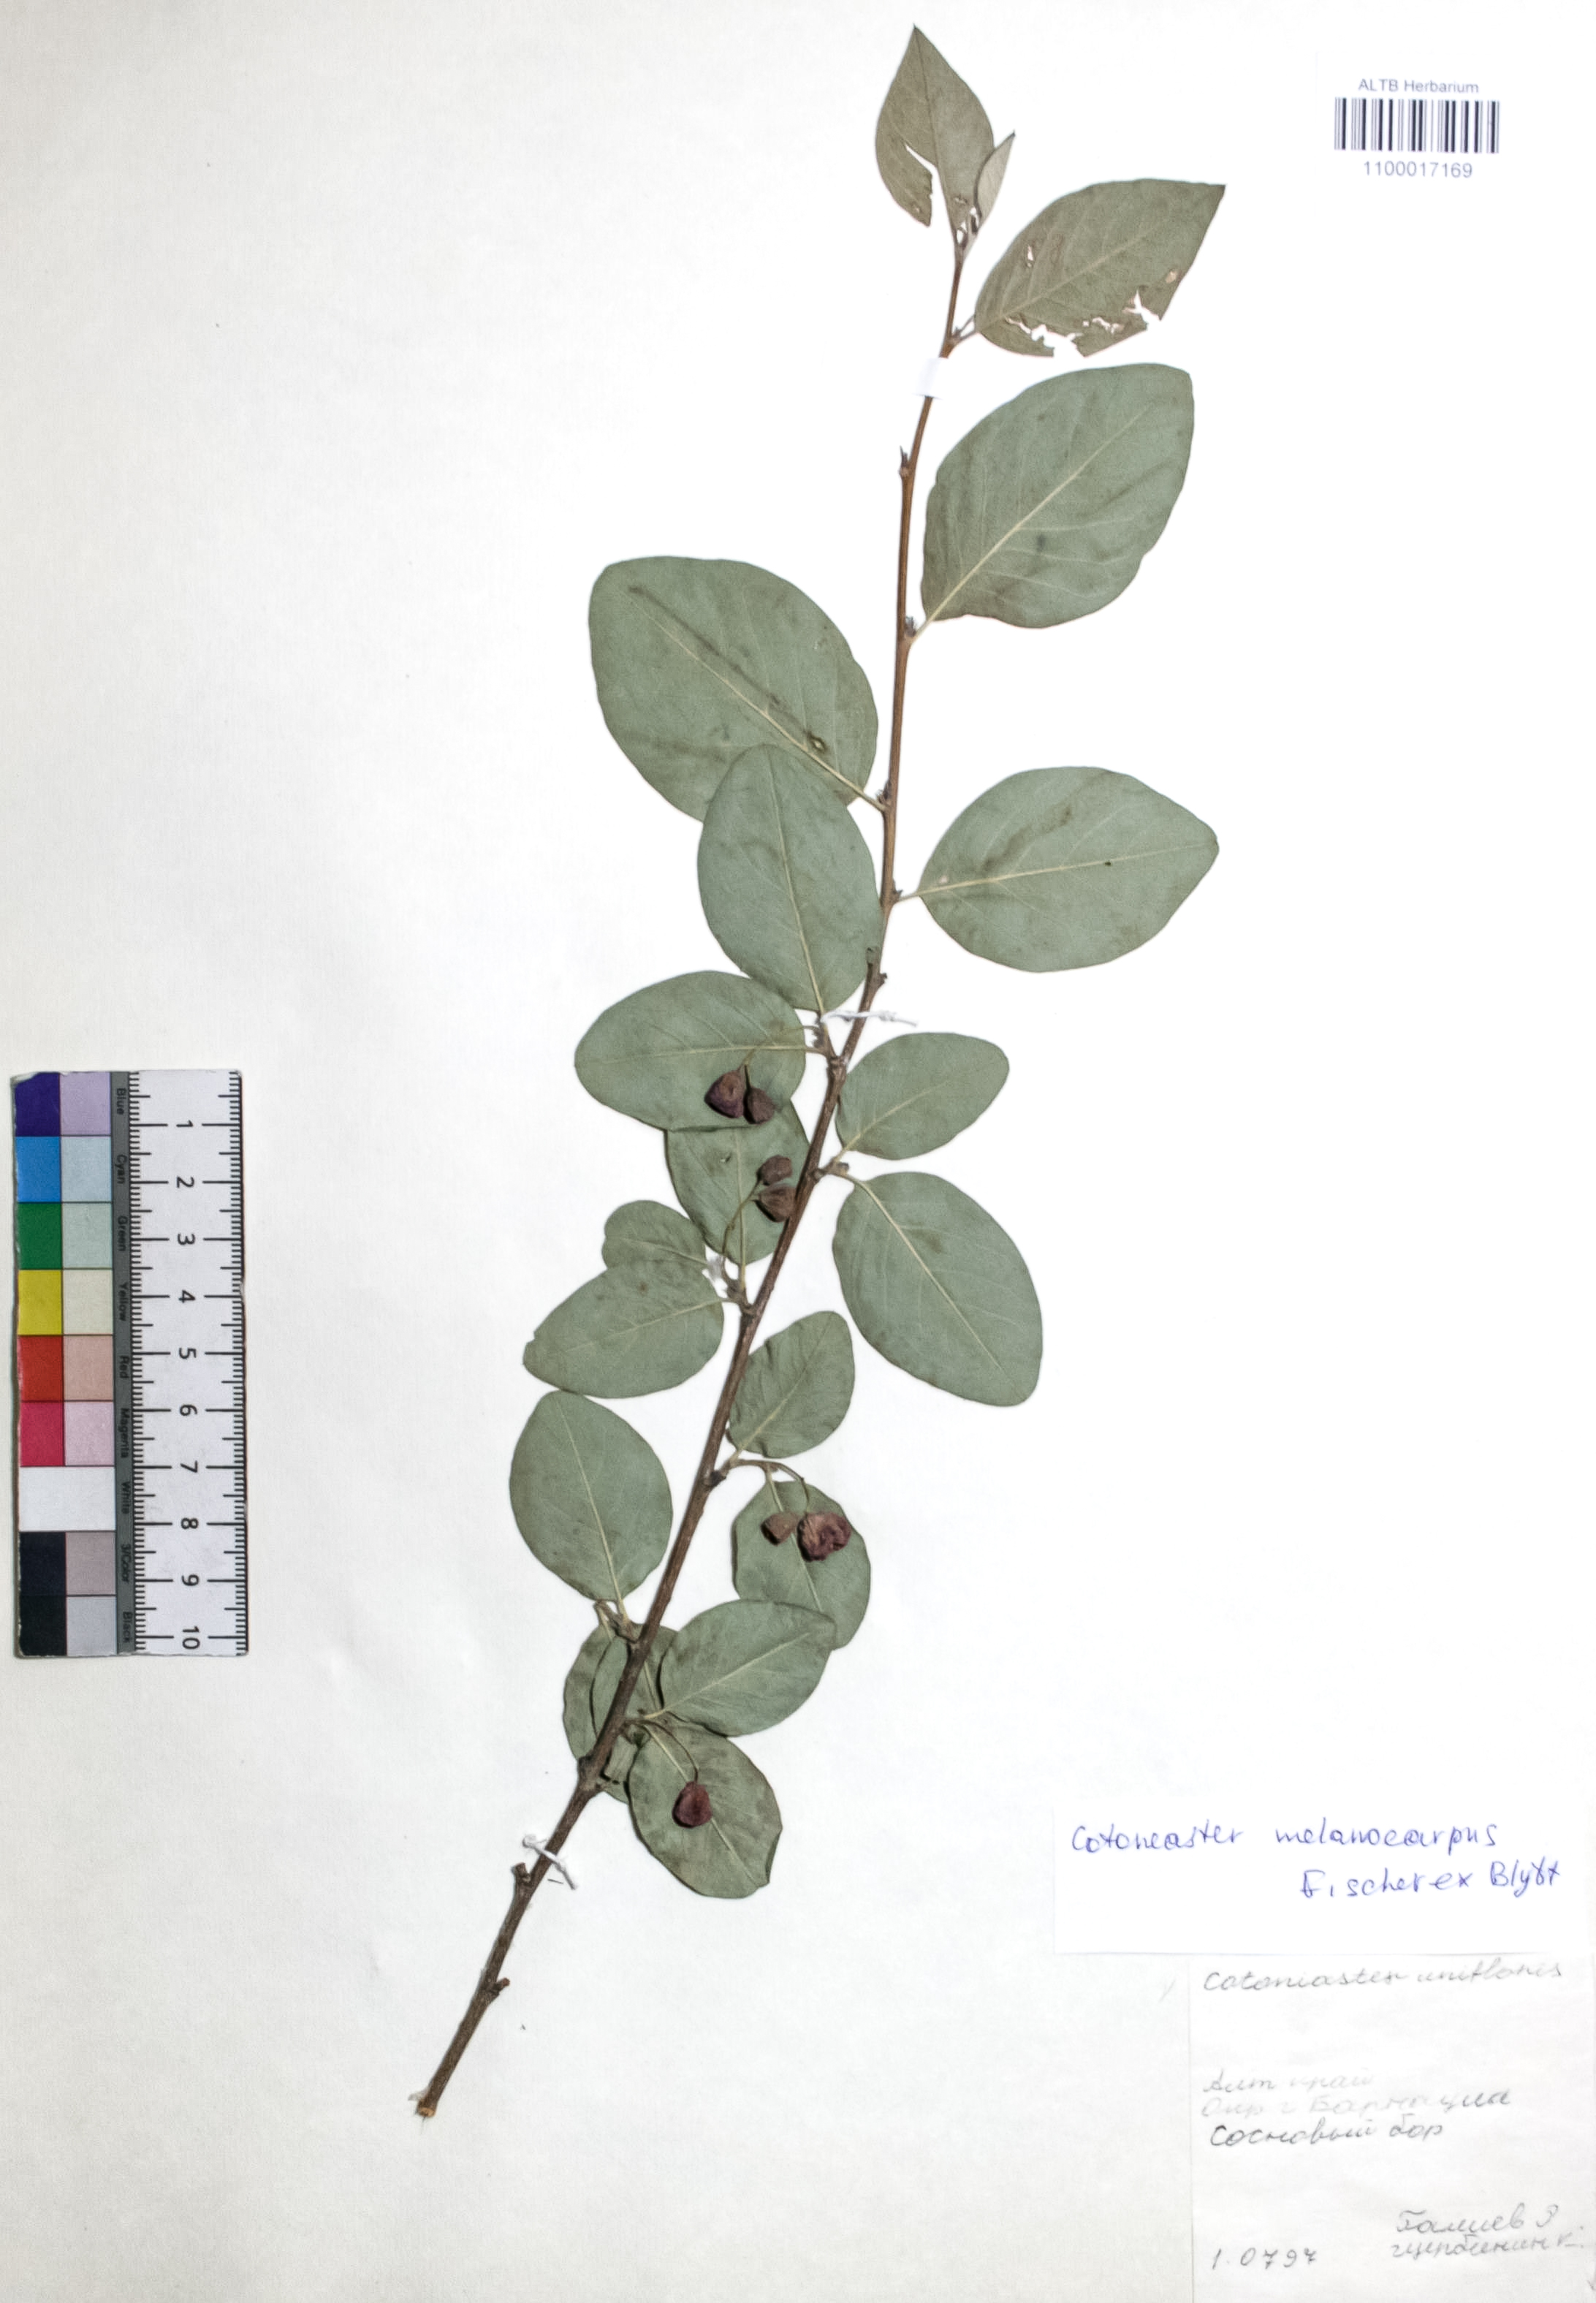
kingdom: Plantae
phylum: Tracheophyta
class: Magnoliopsida
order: Rosales
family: Rosaceae
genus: Cotoneaster
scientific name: Cotoneaster niger
